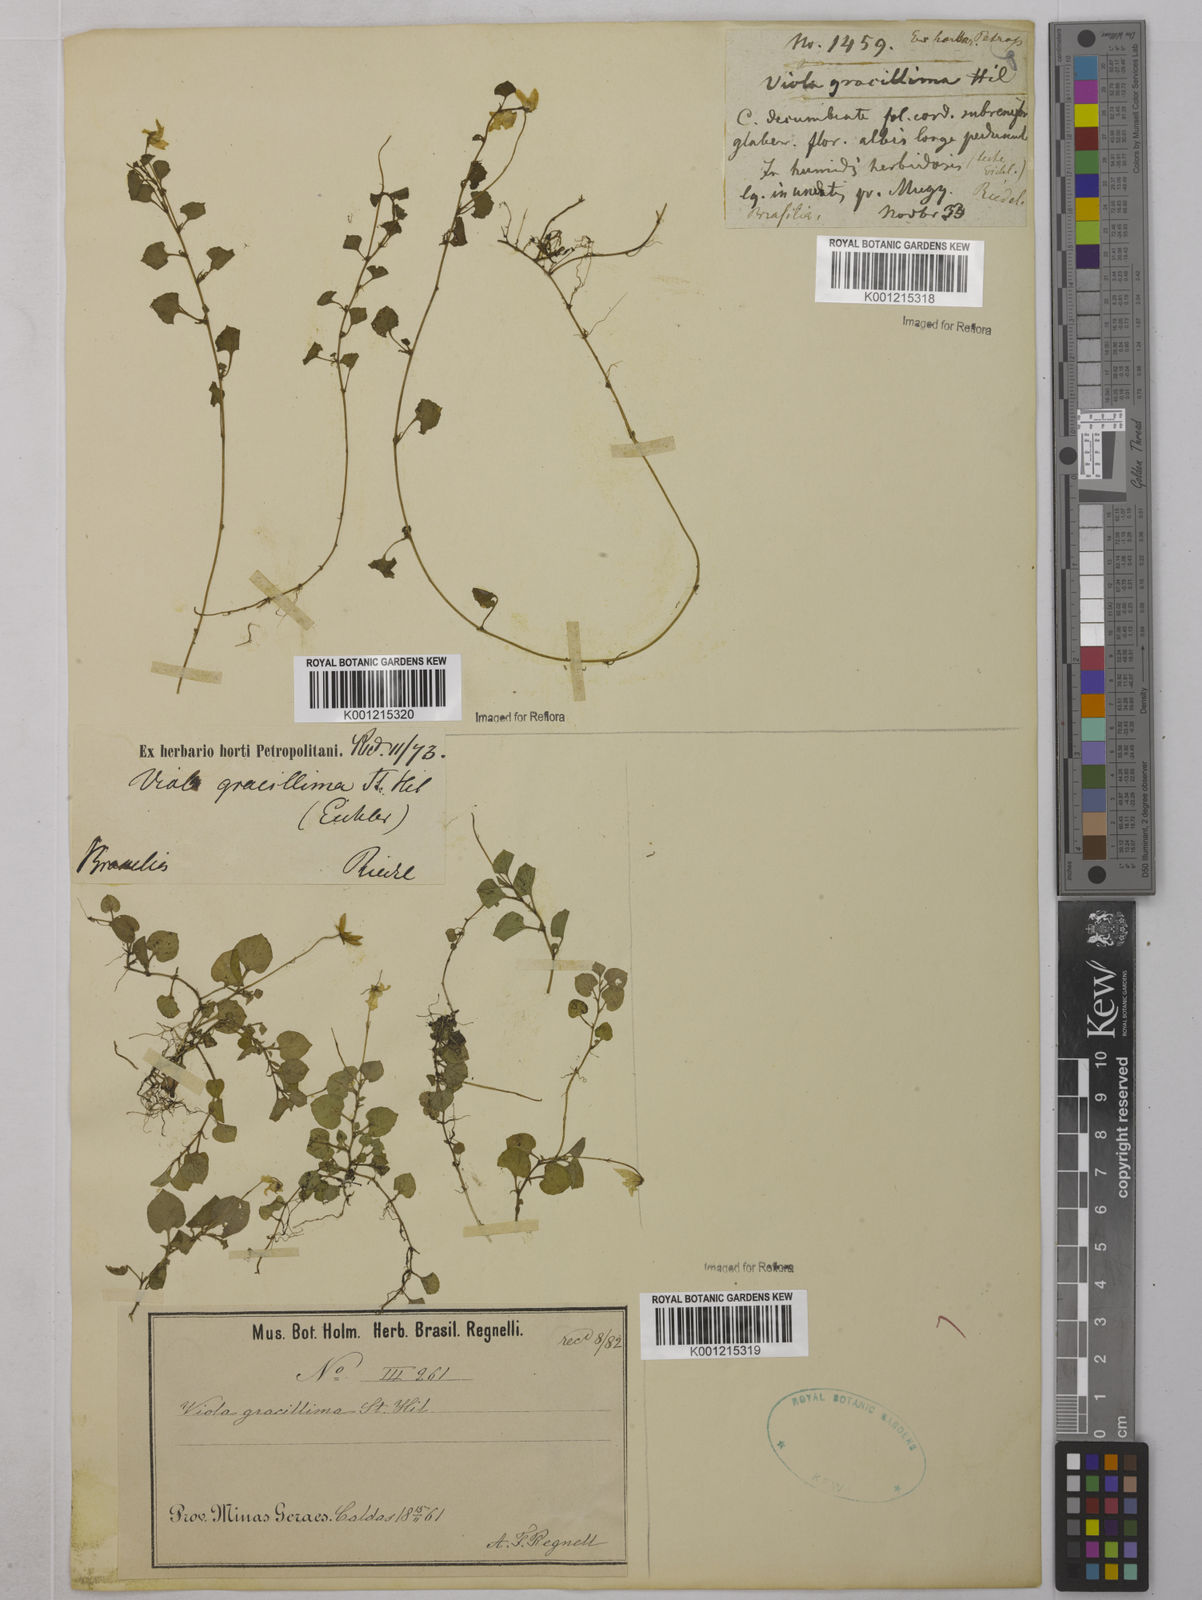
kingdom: Plantae
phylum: Tracheophyta
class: Magnoliopsida
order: Malpighiales
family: Violaceae
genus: Viola
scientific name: Viola gracillima
